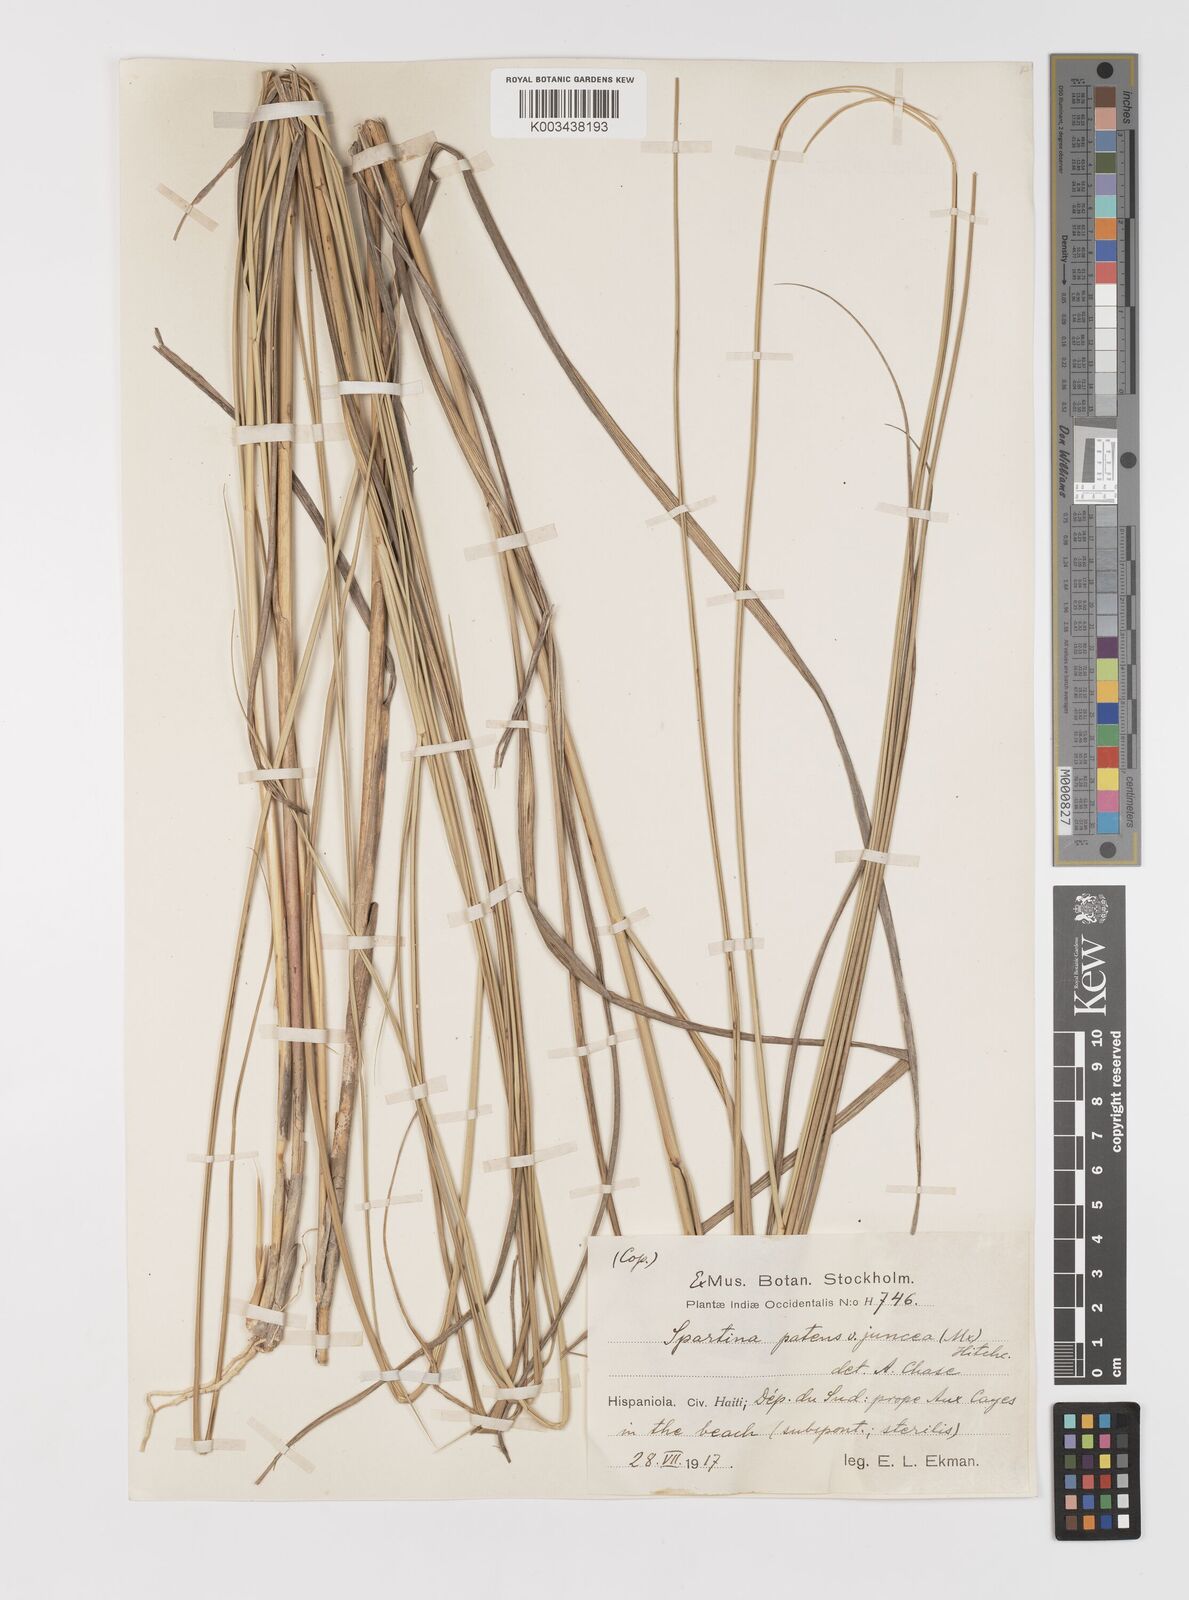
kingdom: Plantae
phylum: Tracheophyta
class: Liliopsida
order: Poales
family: Poaceae
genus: Sporobolus
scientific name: Sporobolus pumilus
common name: Highwater grass
